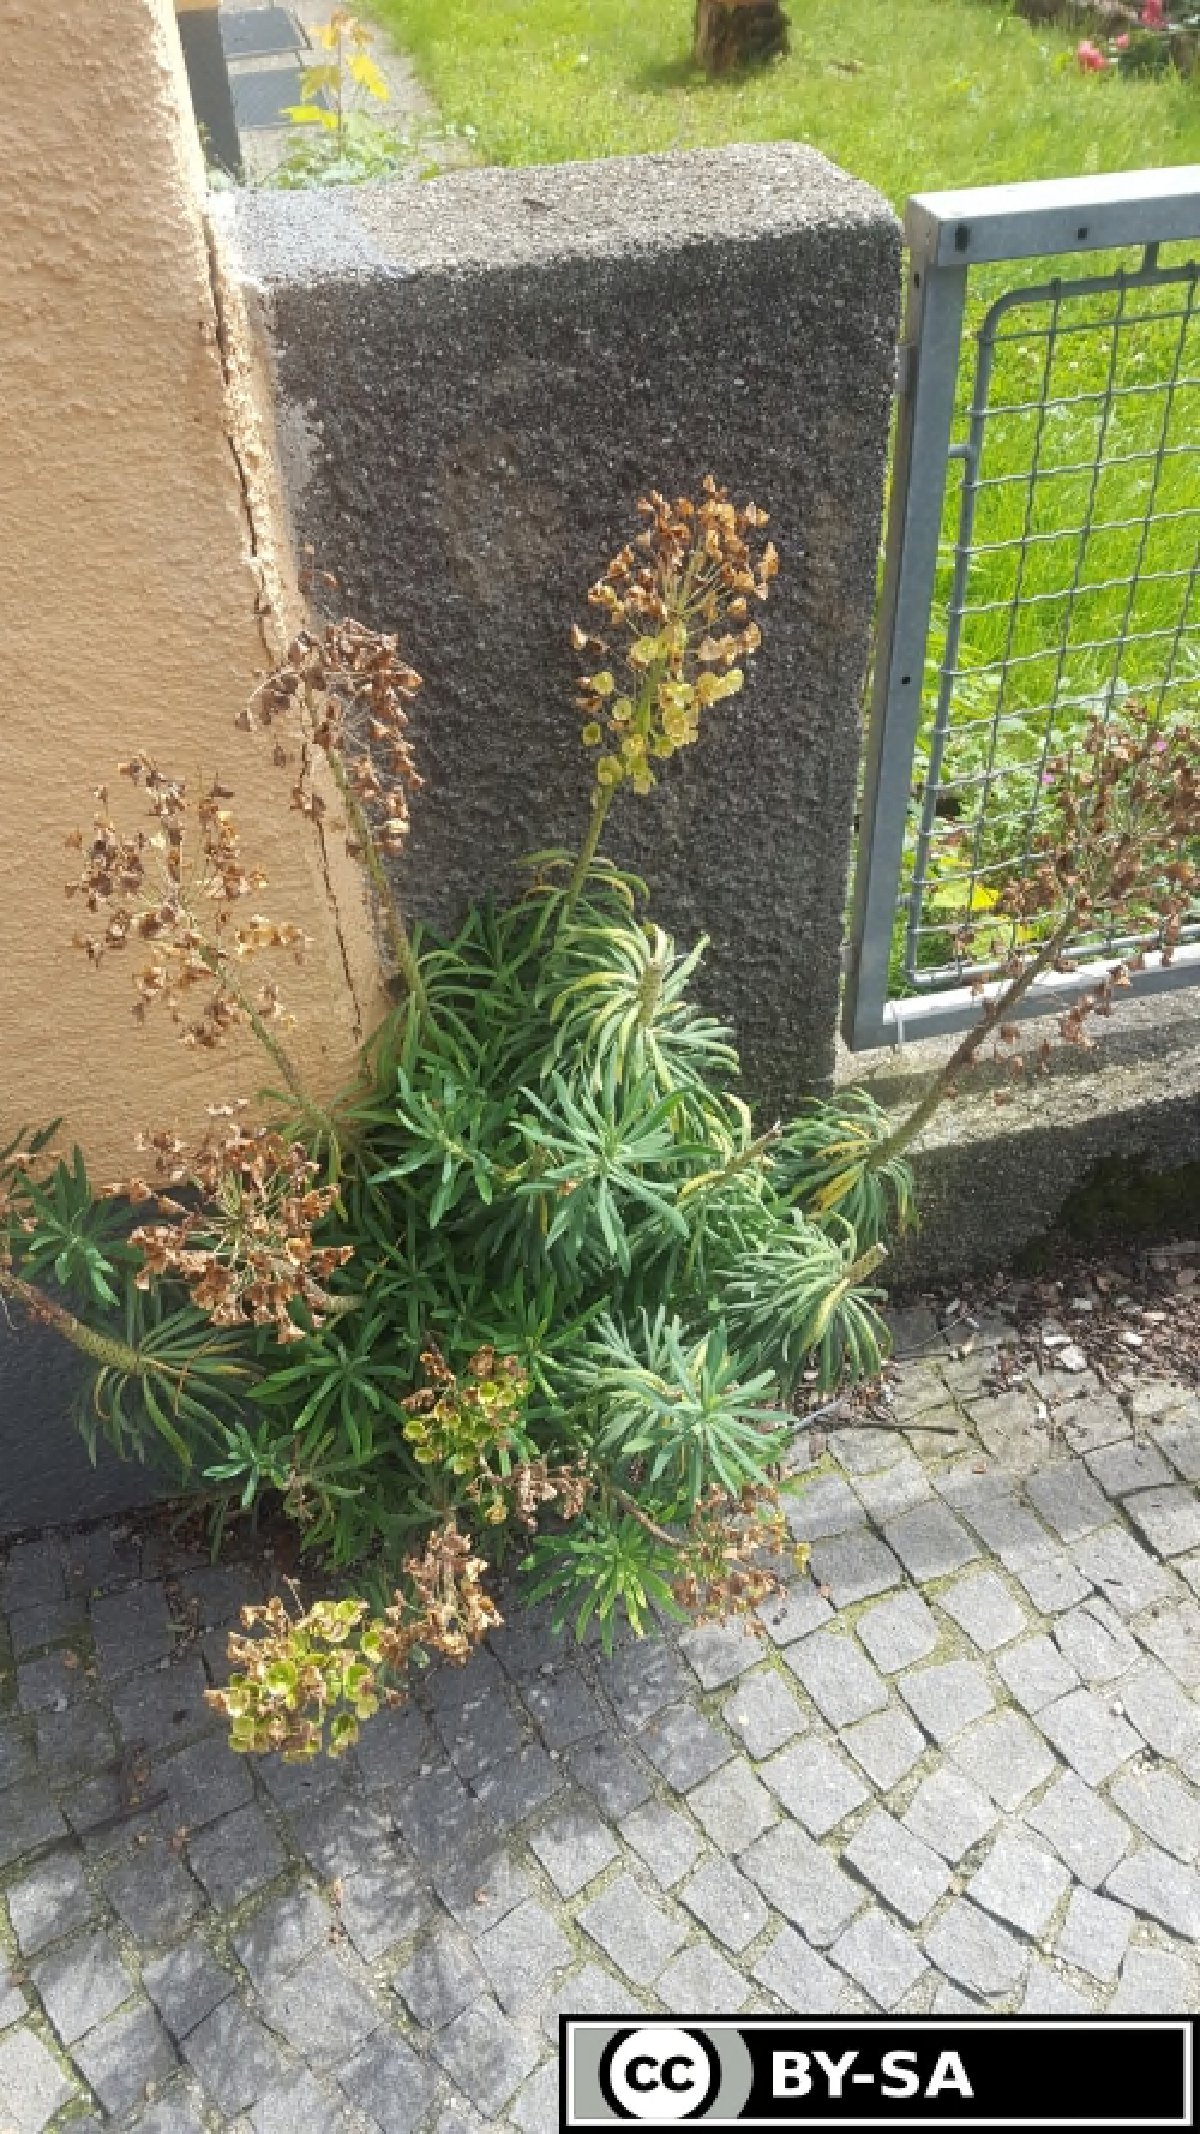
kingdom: Plantae
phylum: Tracheophyta
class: Magnoliopsida
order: Malpighiales
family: Euphorbiaceae
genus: Euphorbia
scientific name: Euphorbia characias
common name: Mediterranean spurge
